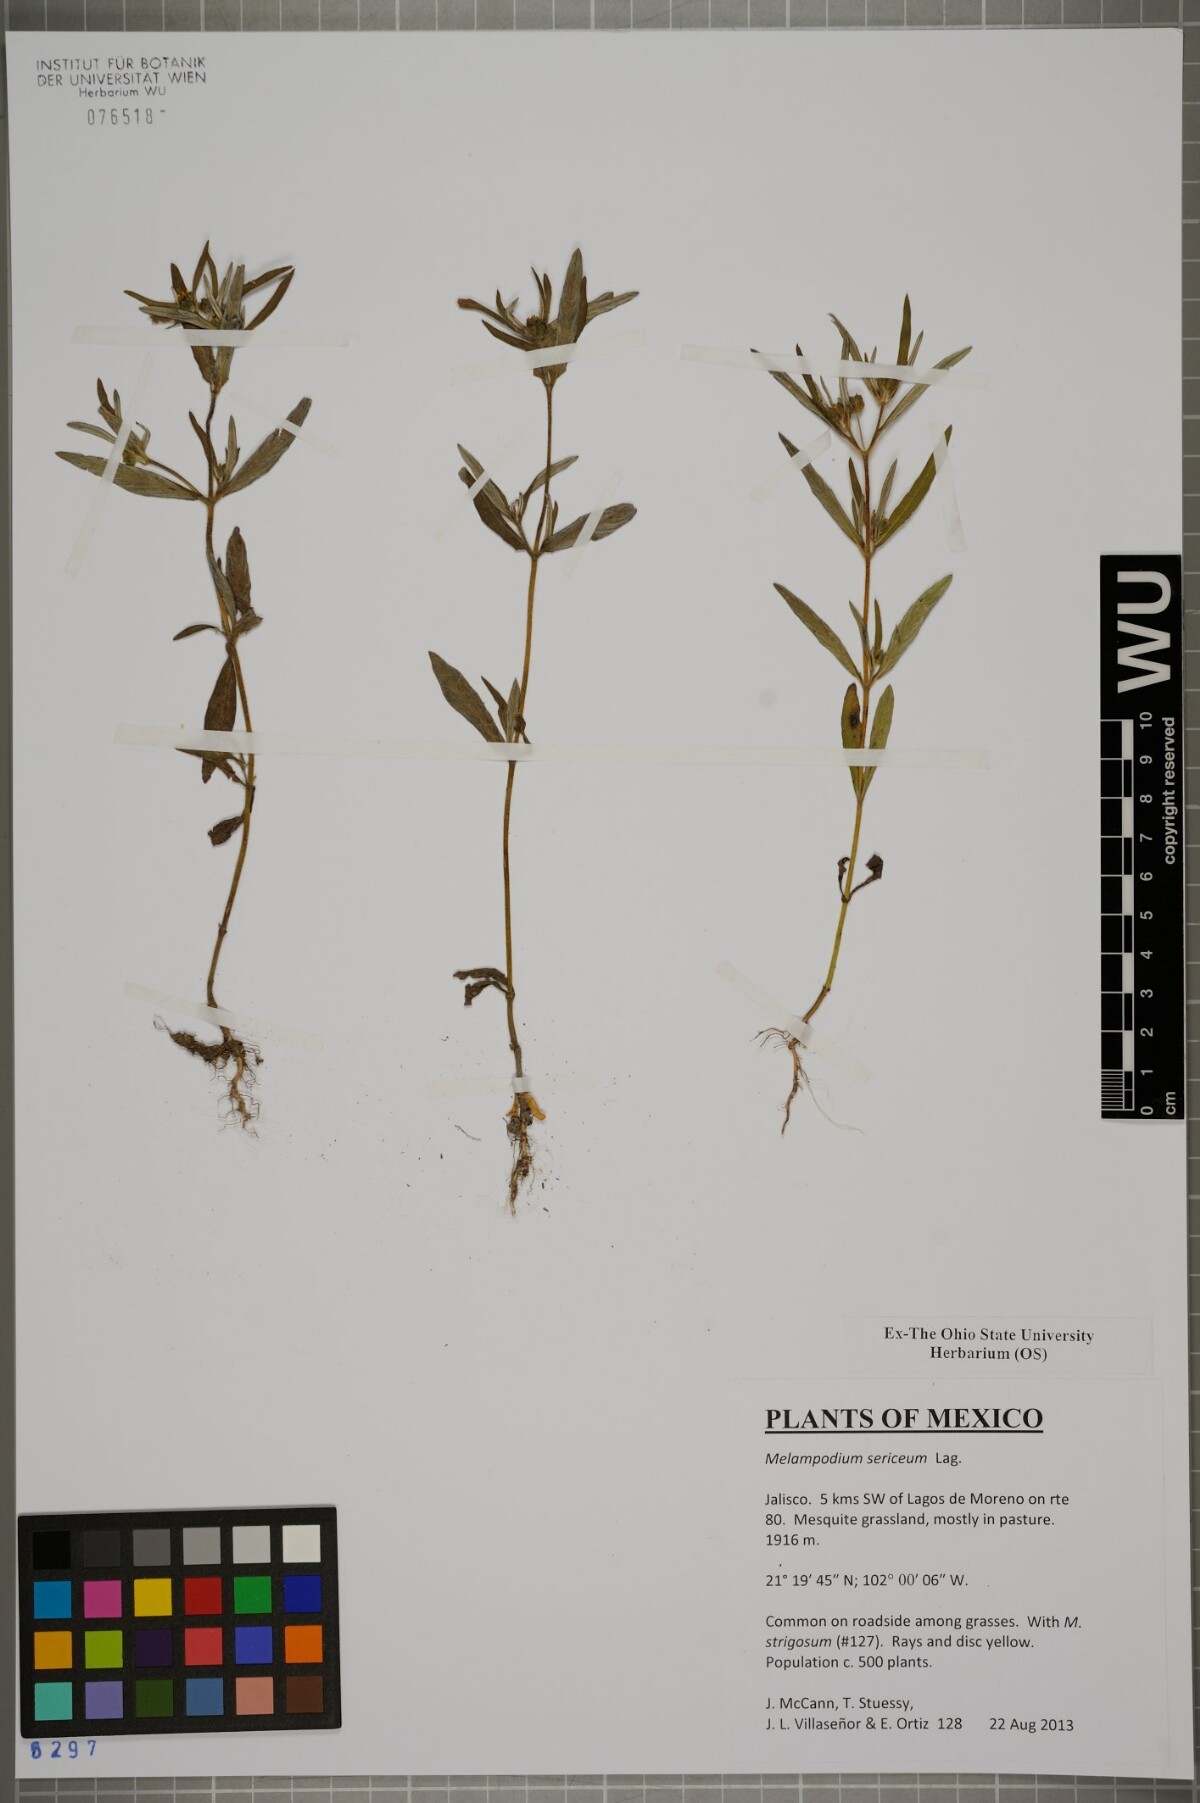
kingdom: Plantae
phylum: Tracheophyta
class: Magnoliopsida
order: Asterales
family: Asteraceae
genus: Melampodium
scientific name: Melampodium sericeum
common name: Rough blackfoot
